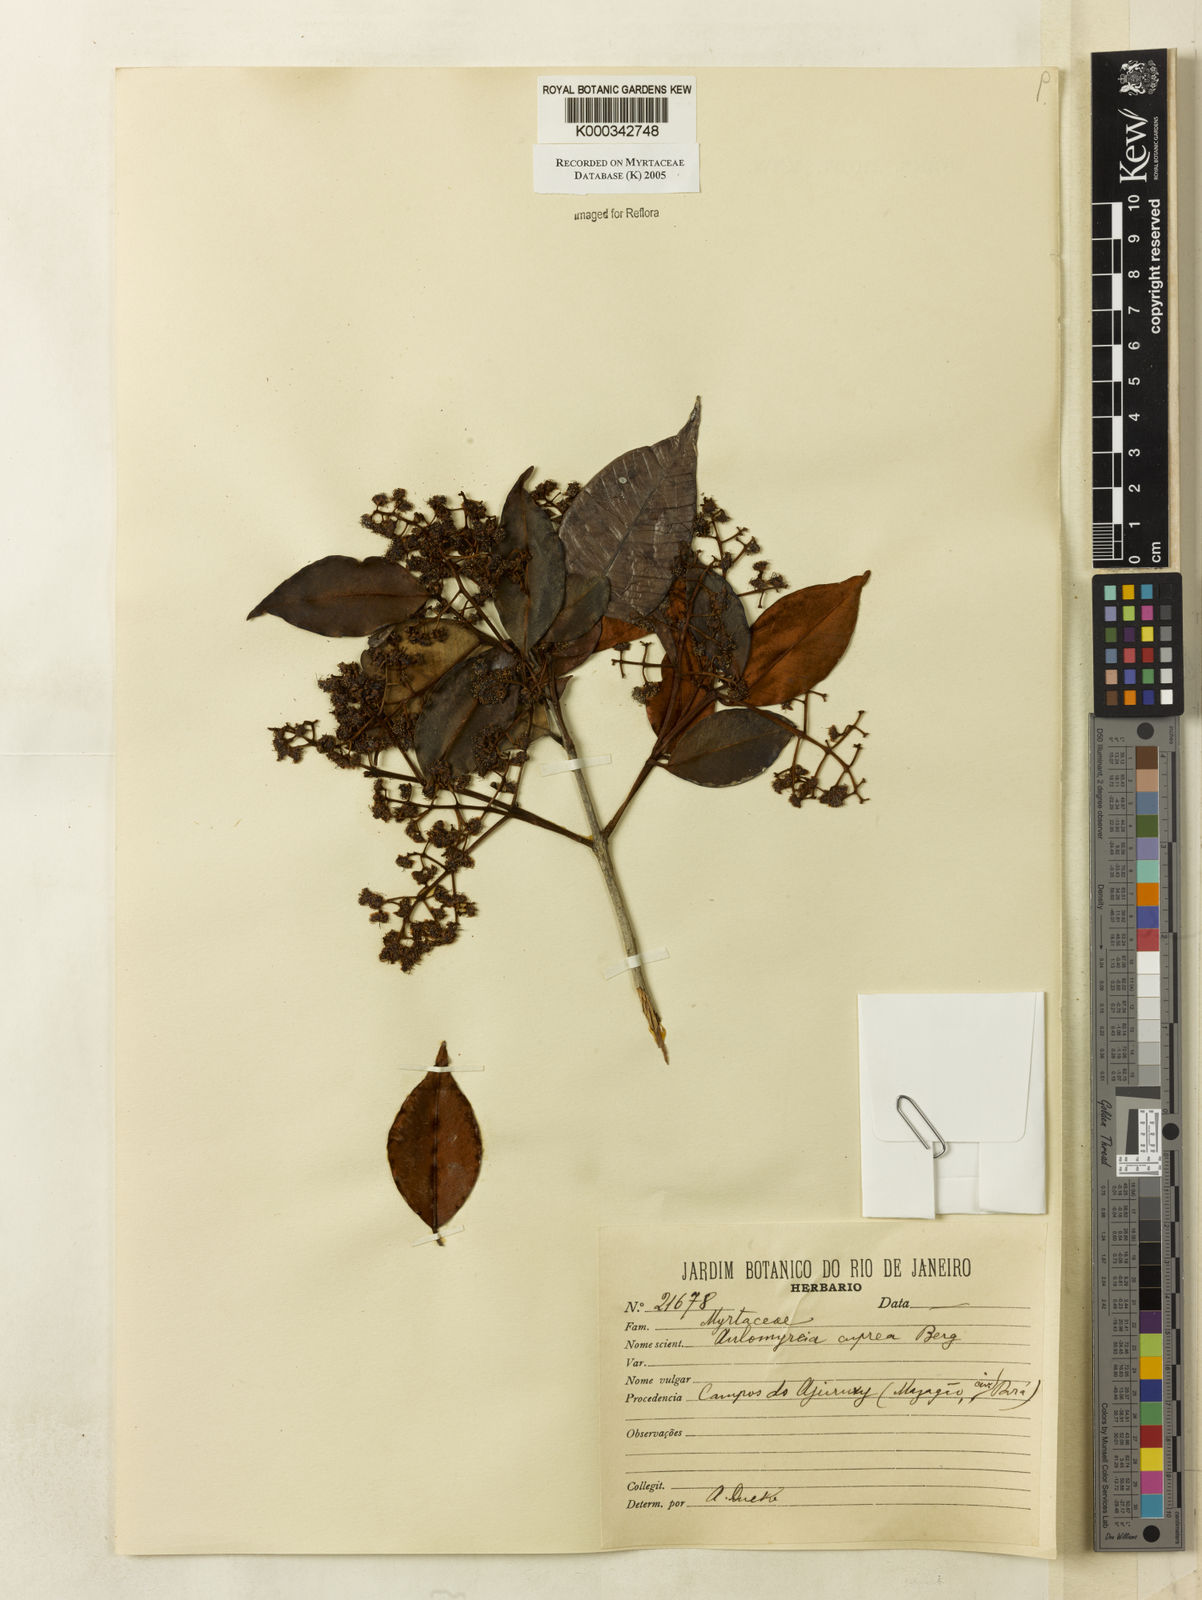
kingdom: Plantae
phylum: Tracheophyta
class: Magnoliopsida
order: Myrtales
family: Myrtaceae
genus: Myrcia
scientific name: Myrcia cuprea
